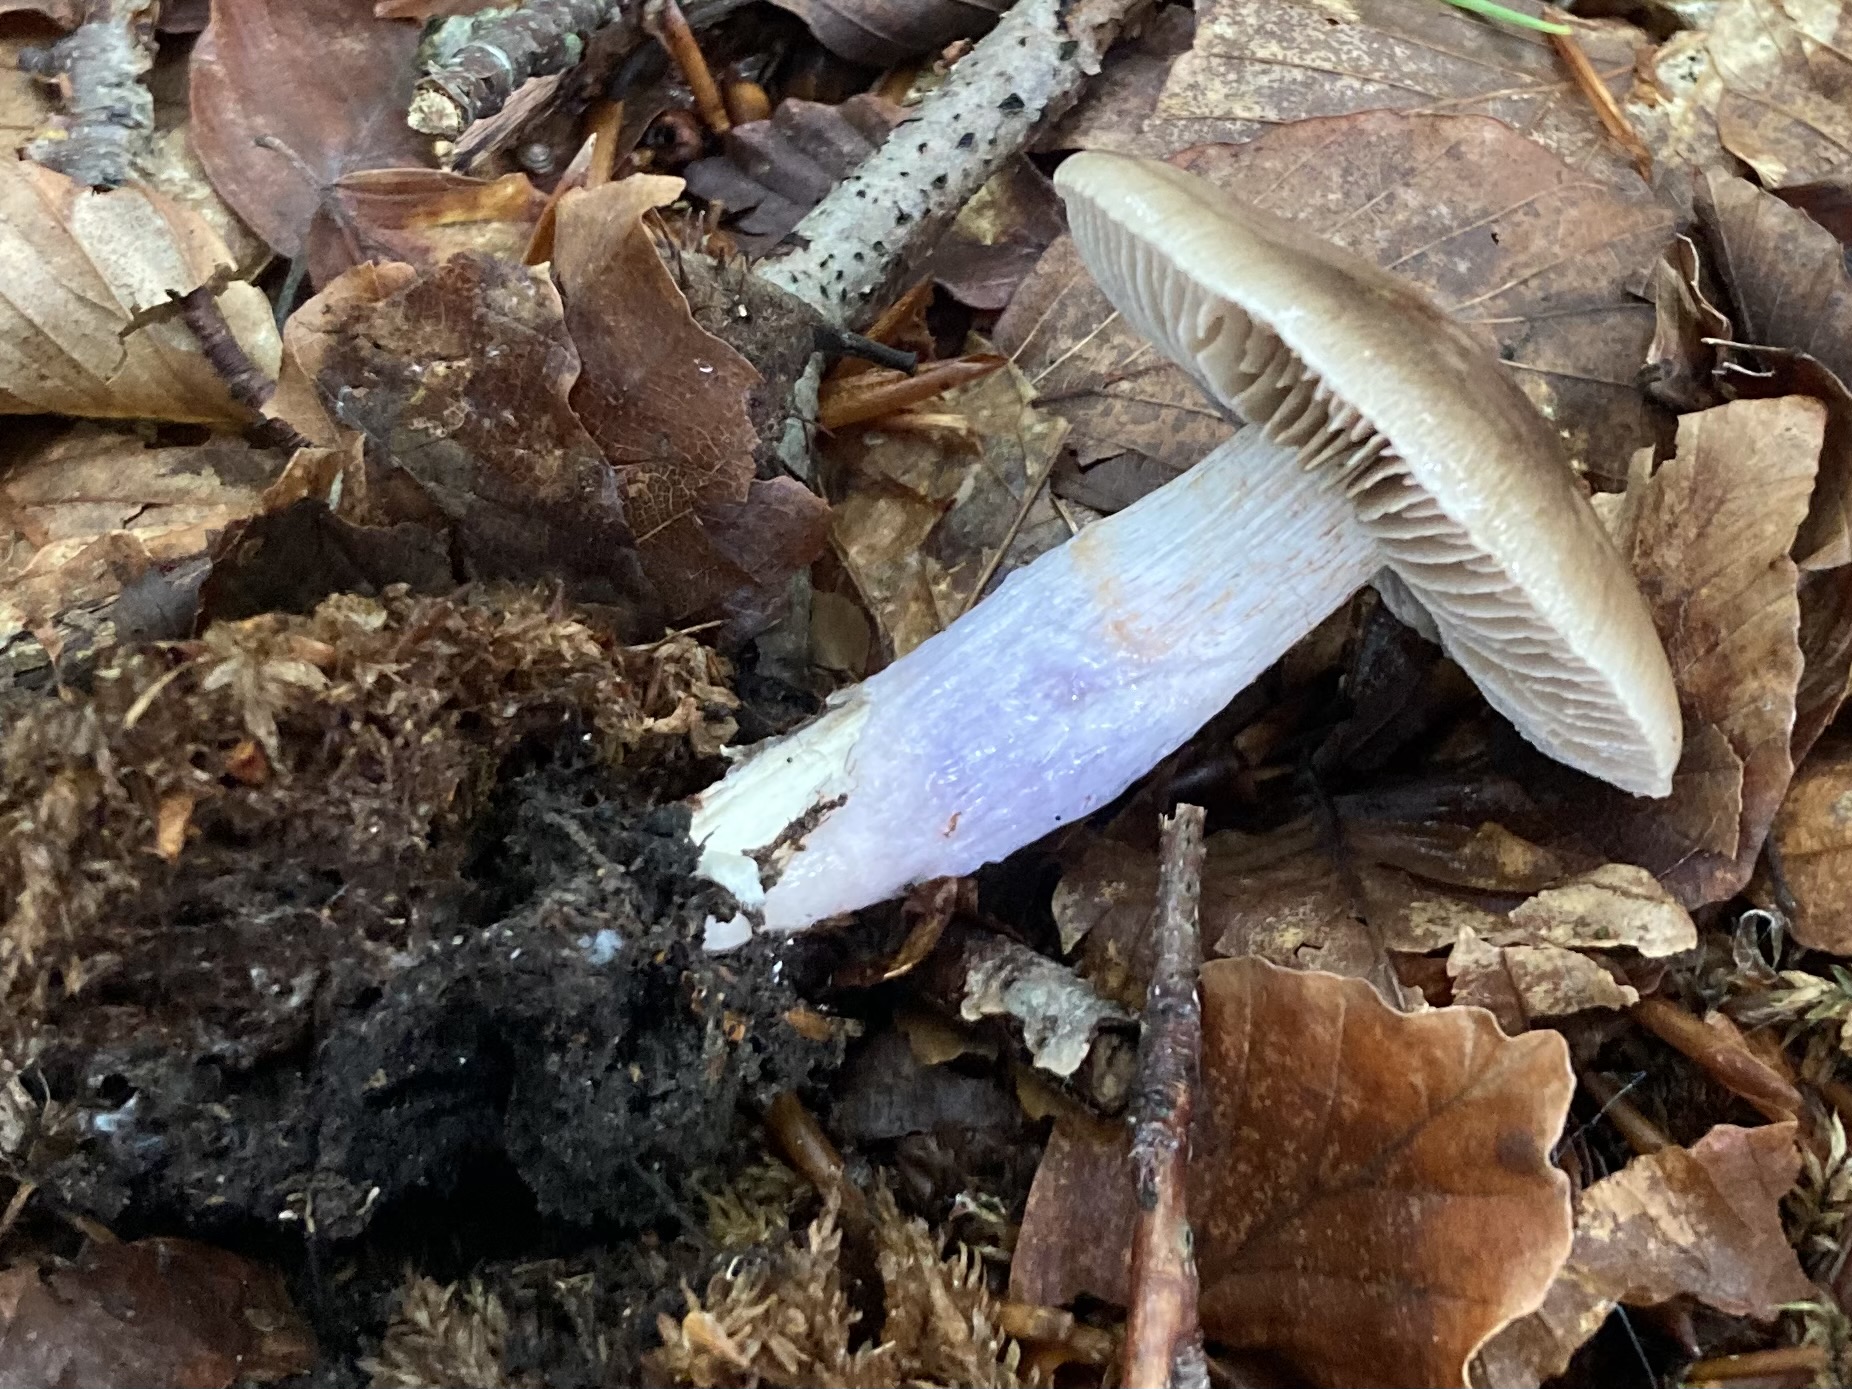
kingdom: Fungi
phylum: Basidiomycota
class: Agaricomycetes
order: Agaricales
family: Cortinariaceae
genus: Cortinarius
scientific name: Cortinarius livido-ochraceus
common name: halvhøj slørhat
